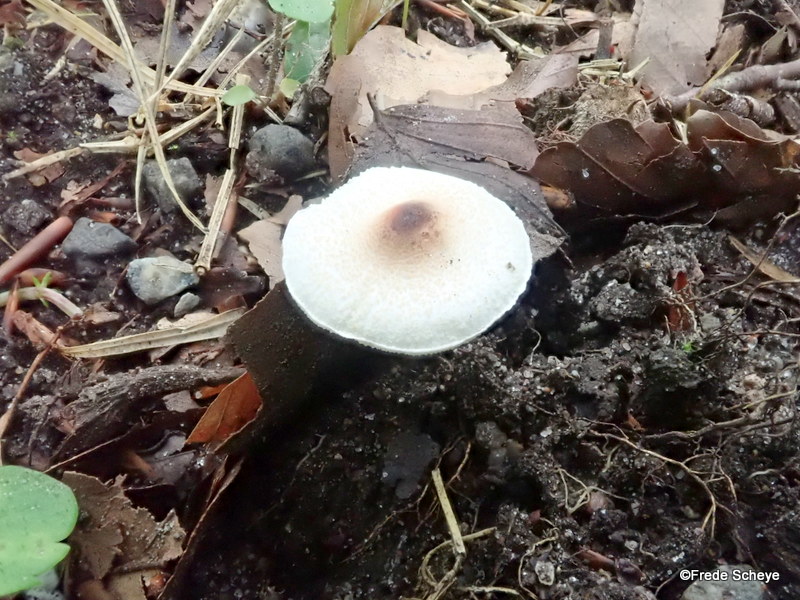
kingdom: Fungi
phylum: Basidiomycota
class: Agaricomycetes
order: Agaricales
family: Agaricaceae
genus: Lepiota
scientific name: Lepiota cristata
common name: stinkende parasolhat
